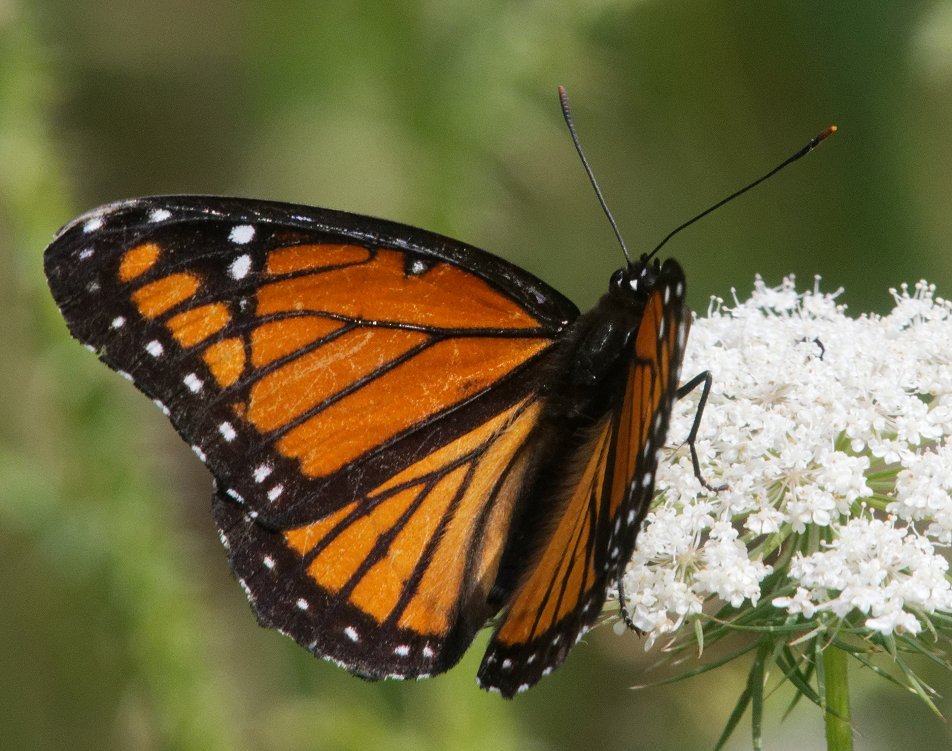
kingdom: Animalia
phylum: Arthropoda
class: Insecta
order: Lepidoptera
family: Nymphalidae
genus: Limenitis
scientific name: Limenitis archippus
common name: Viceroy
